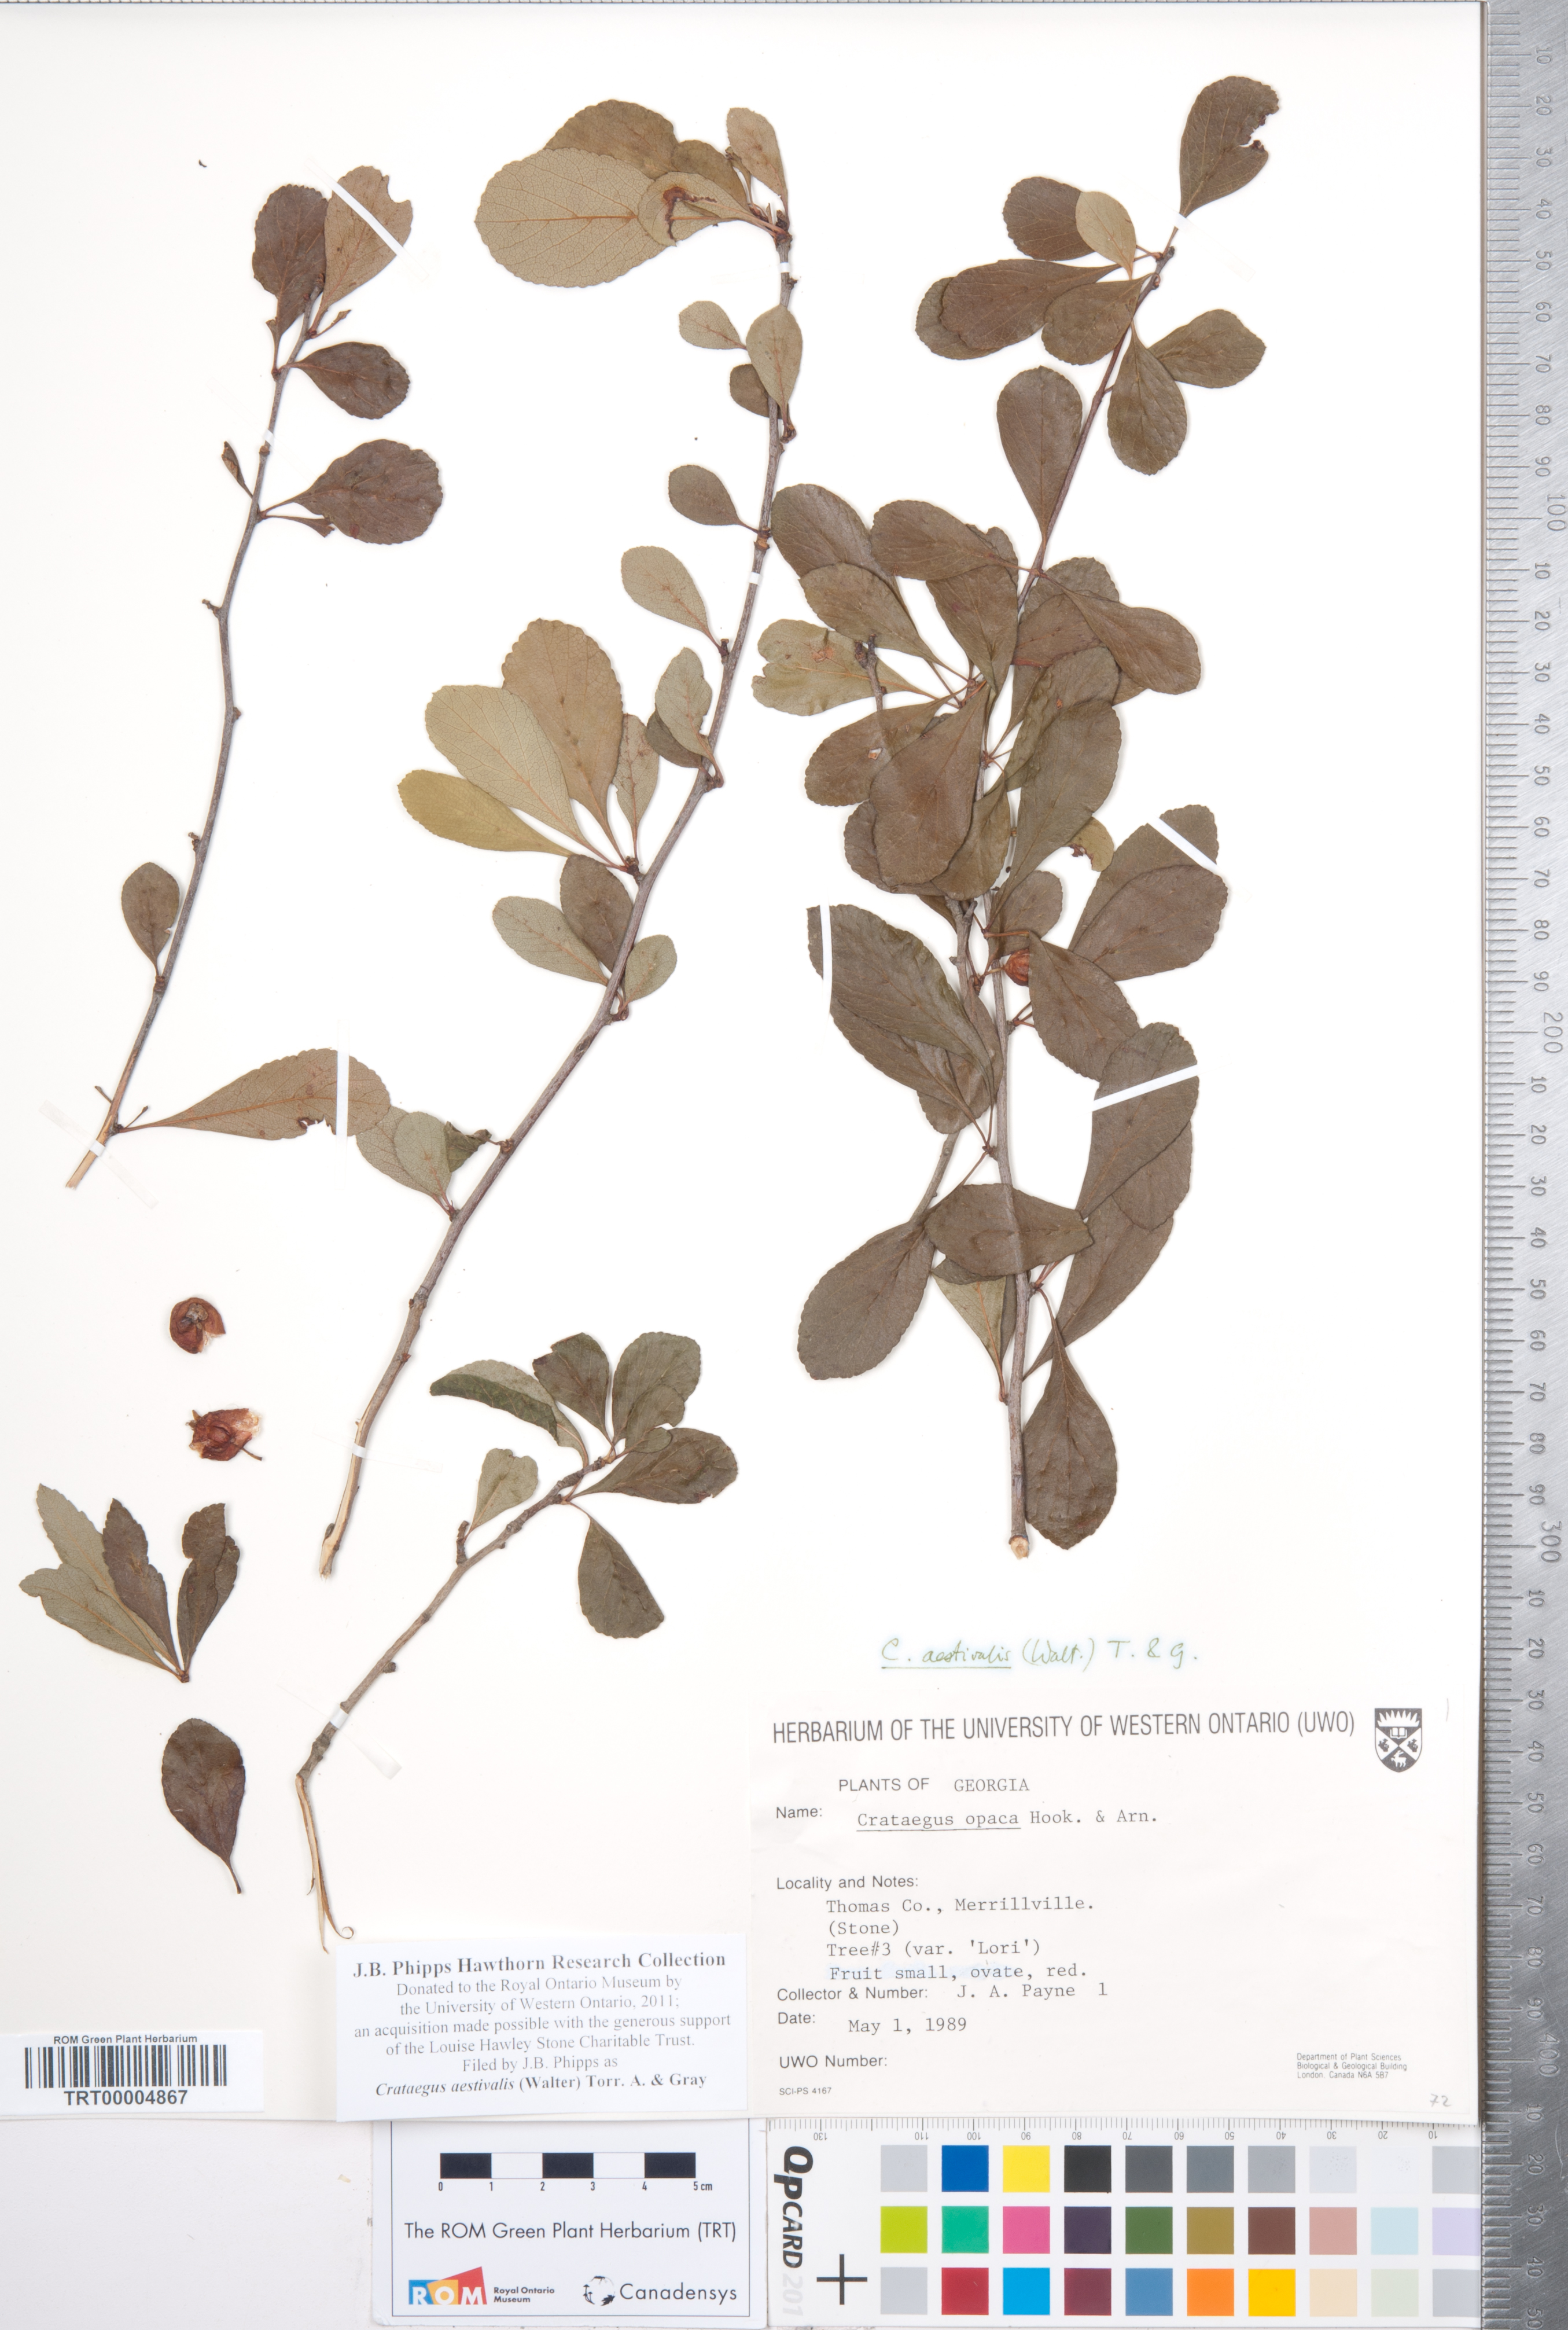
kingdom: Plantae
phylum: Tracheophyta
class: Magnoliopsida
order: Rosales
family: Rosaceae
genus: Crataegus
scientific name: Crataegus aestivalis
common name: Mayhaw
